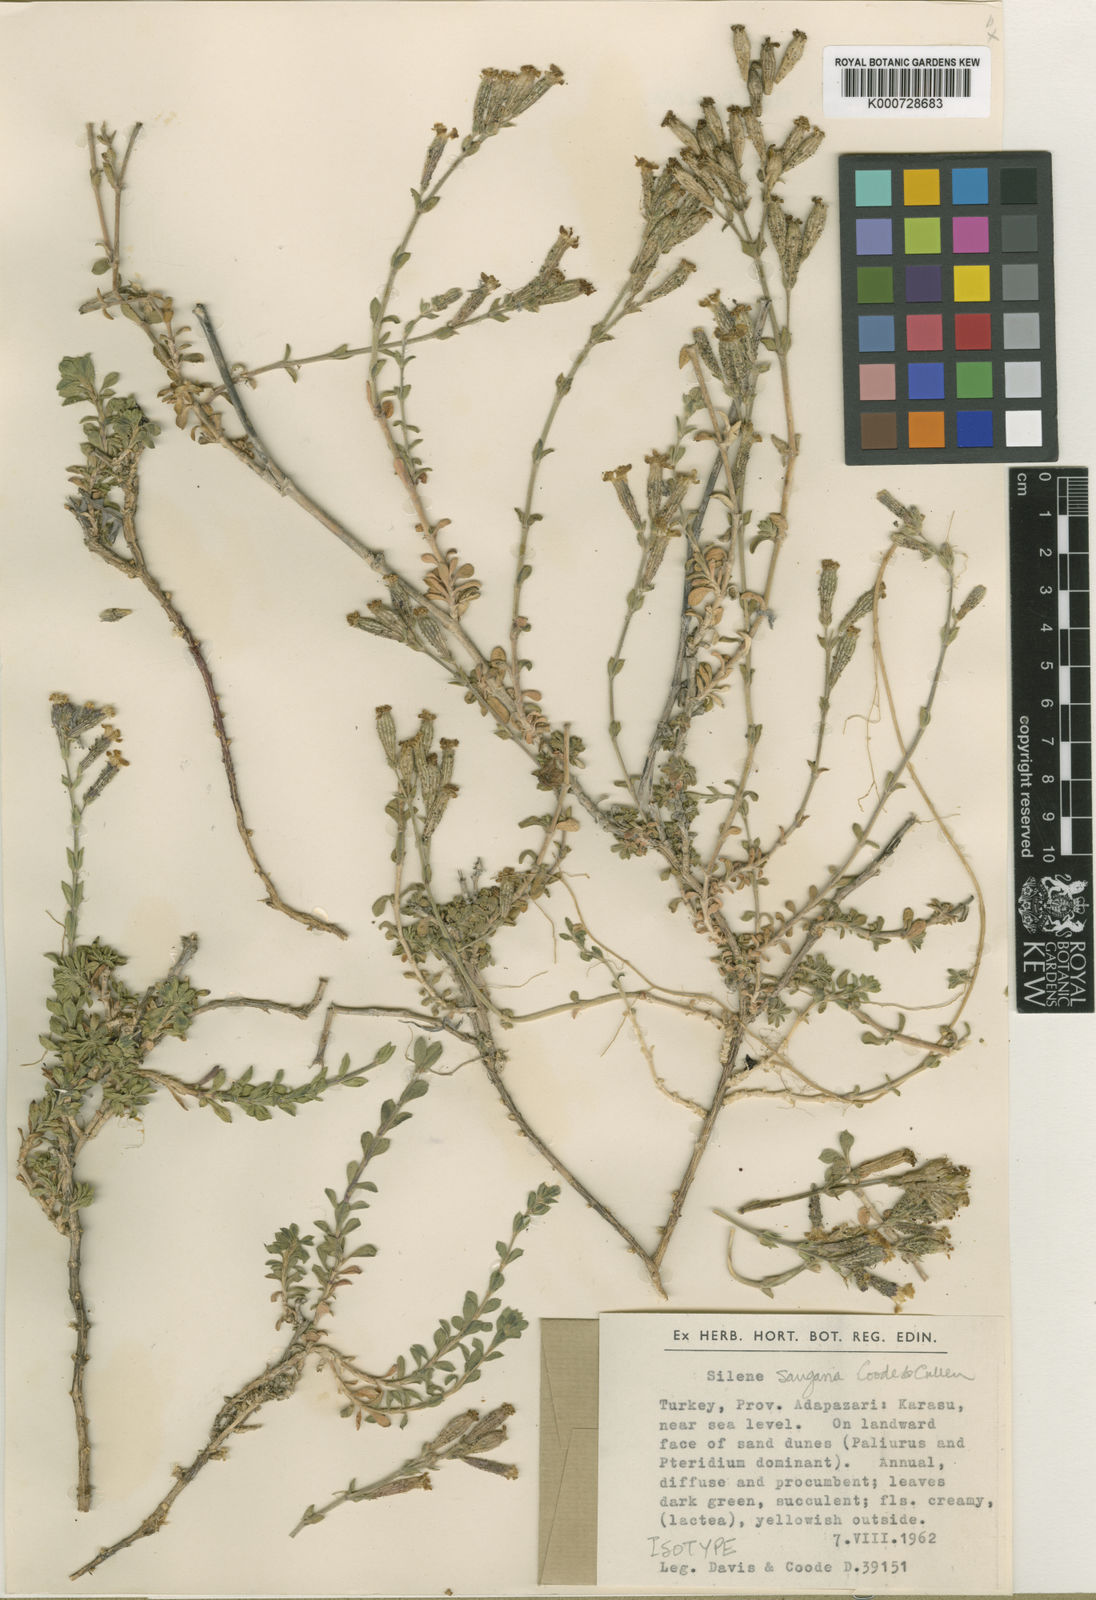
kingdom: Plantae
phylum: Tracheophyta
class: Magnoliopsida
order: Caryophyllales
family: Caryophyllaceae
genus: Silene
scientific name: Silene thymifolia
